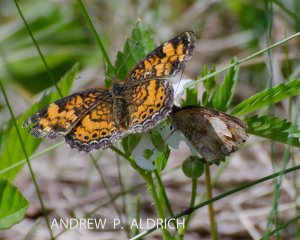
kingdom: Animalia
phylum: Arthropoda
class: Insecta
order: Lepidoptera
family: Nymphalidae
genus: Phyciodes
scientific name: Phyciodes tharos
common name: Pearl Crescent
